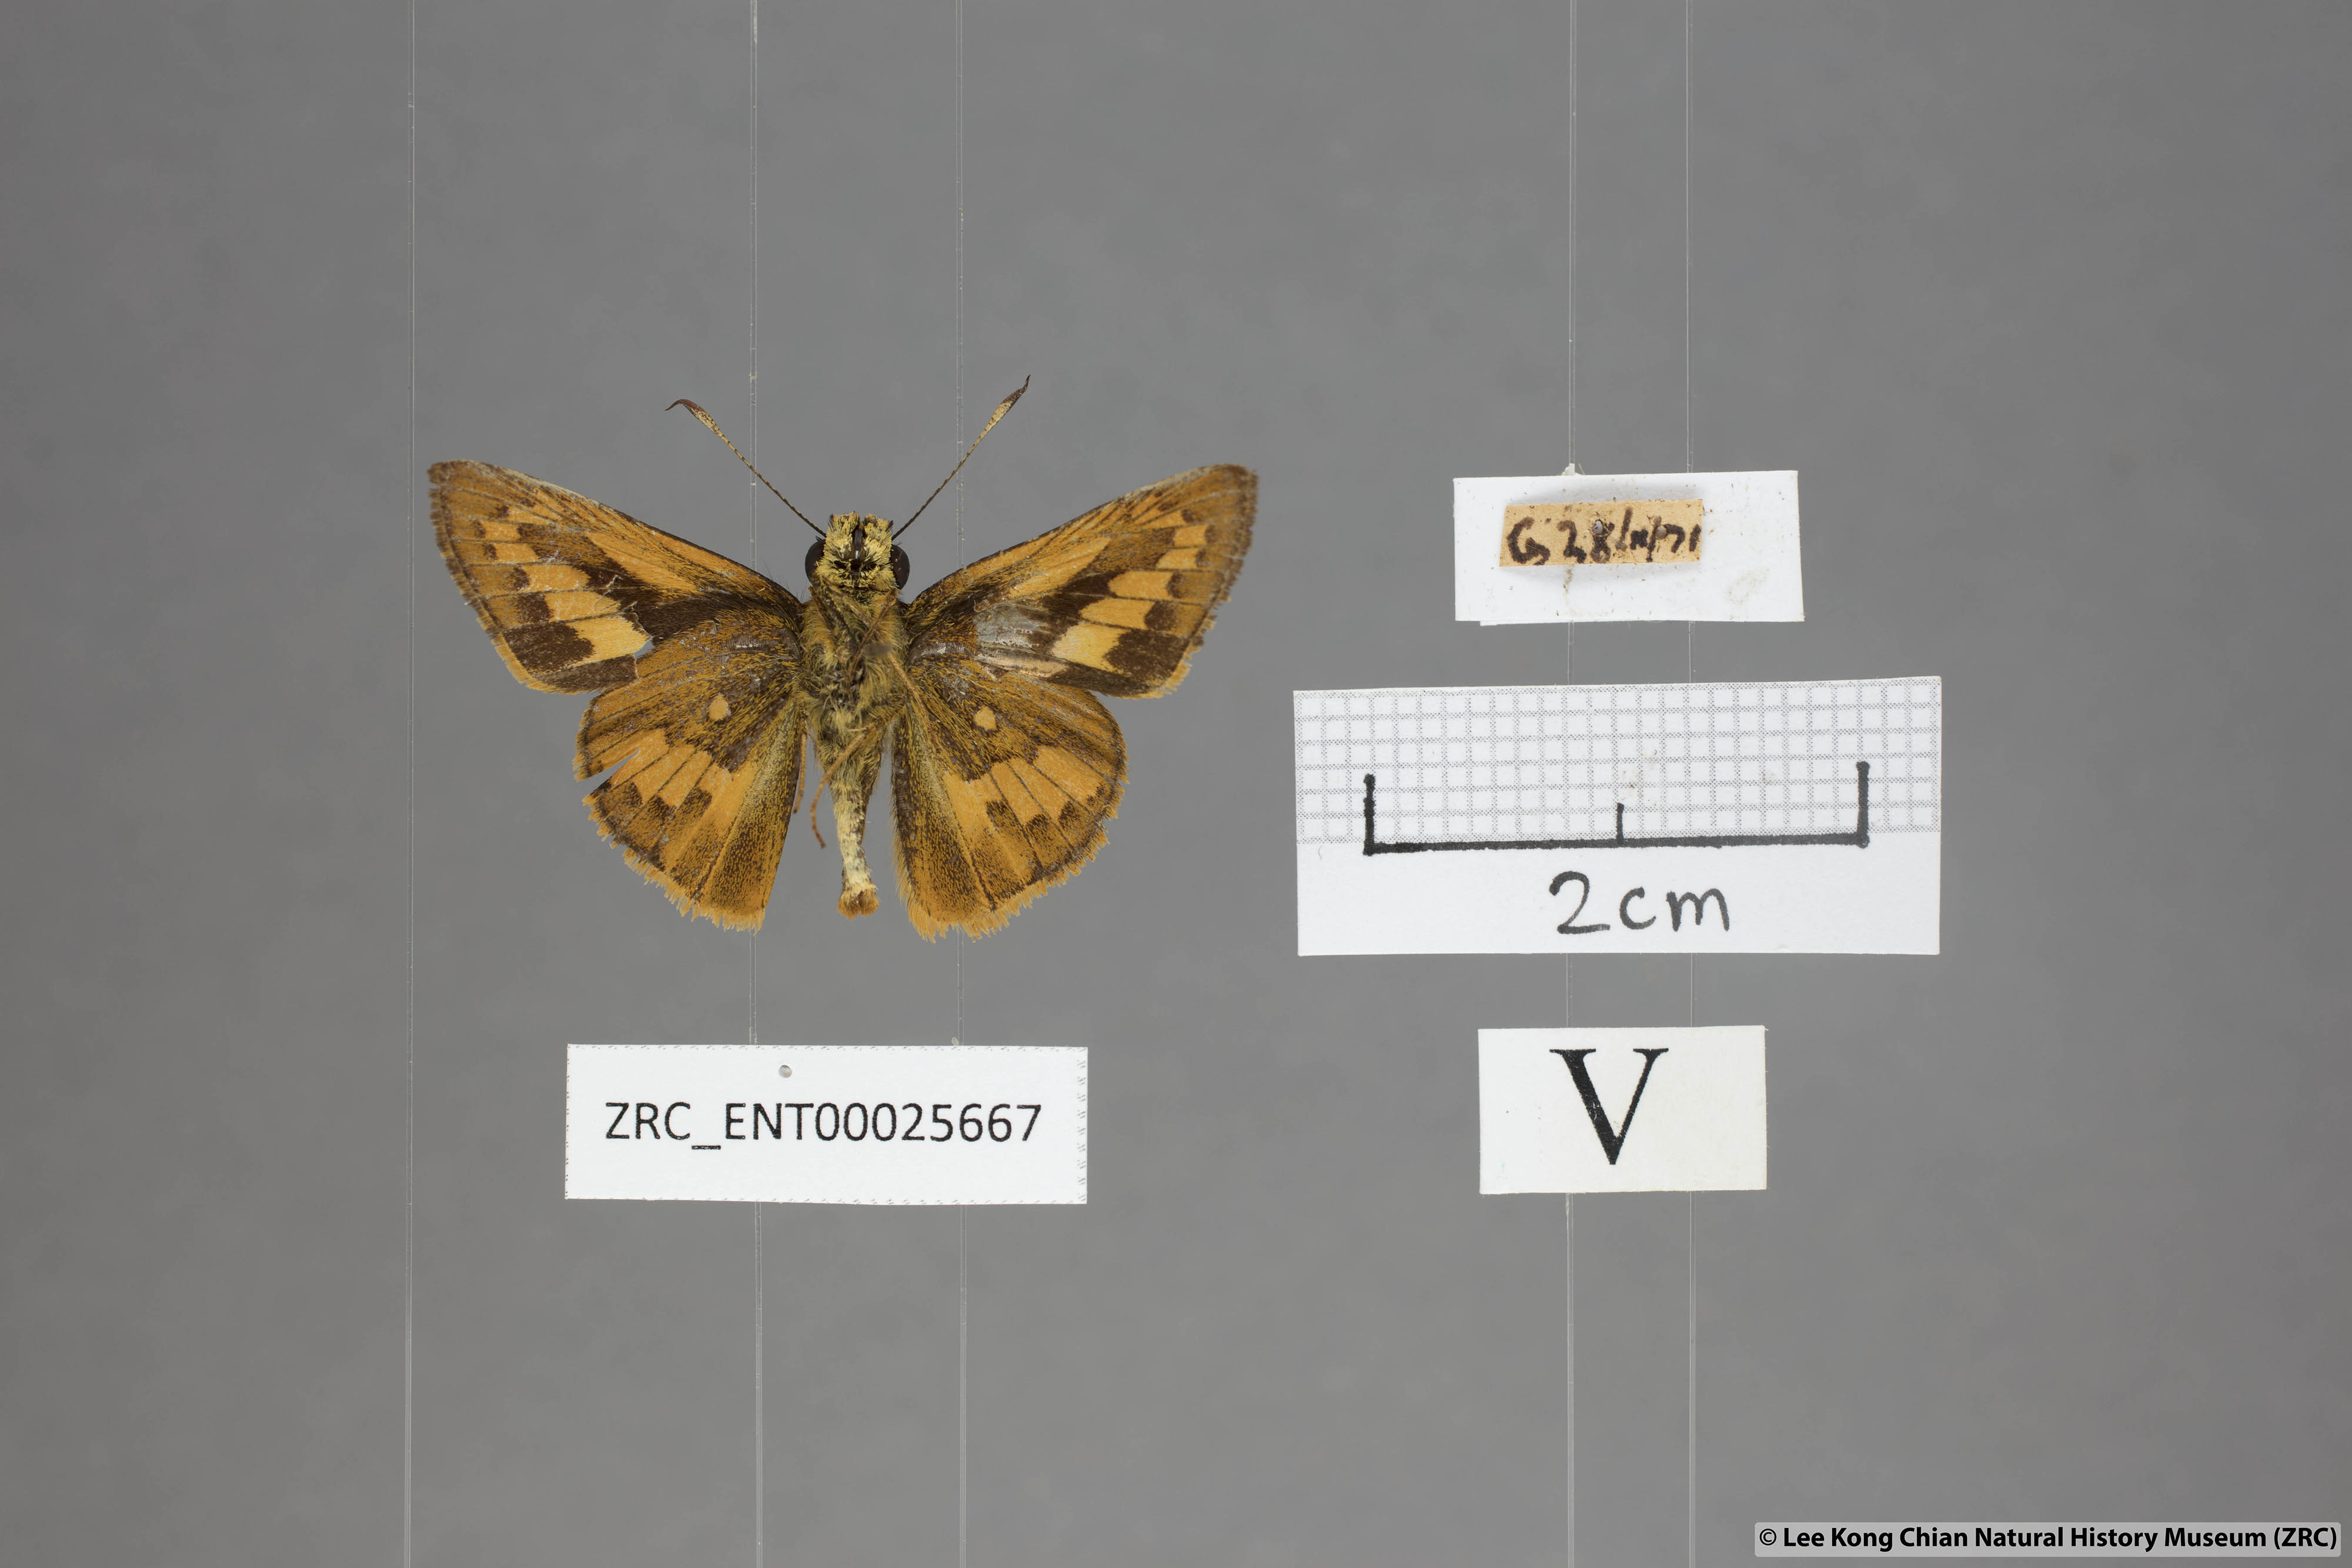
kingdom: Animalia
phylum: Arthropoda
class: Insecta
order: Lepidoptera
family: Hesperiidae
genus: Telicota
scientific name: Telicota hilda
